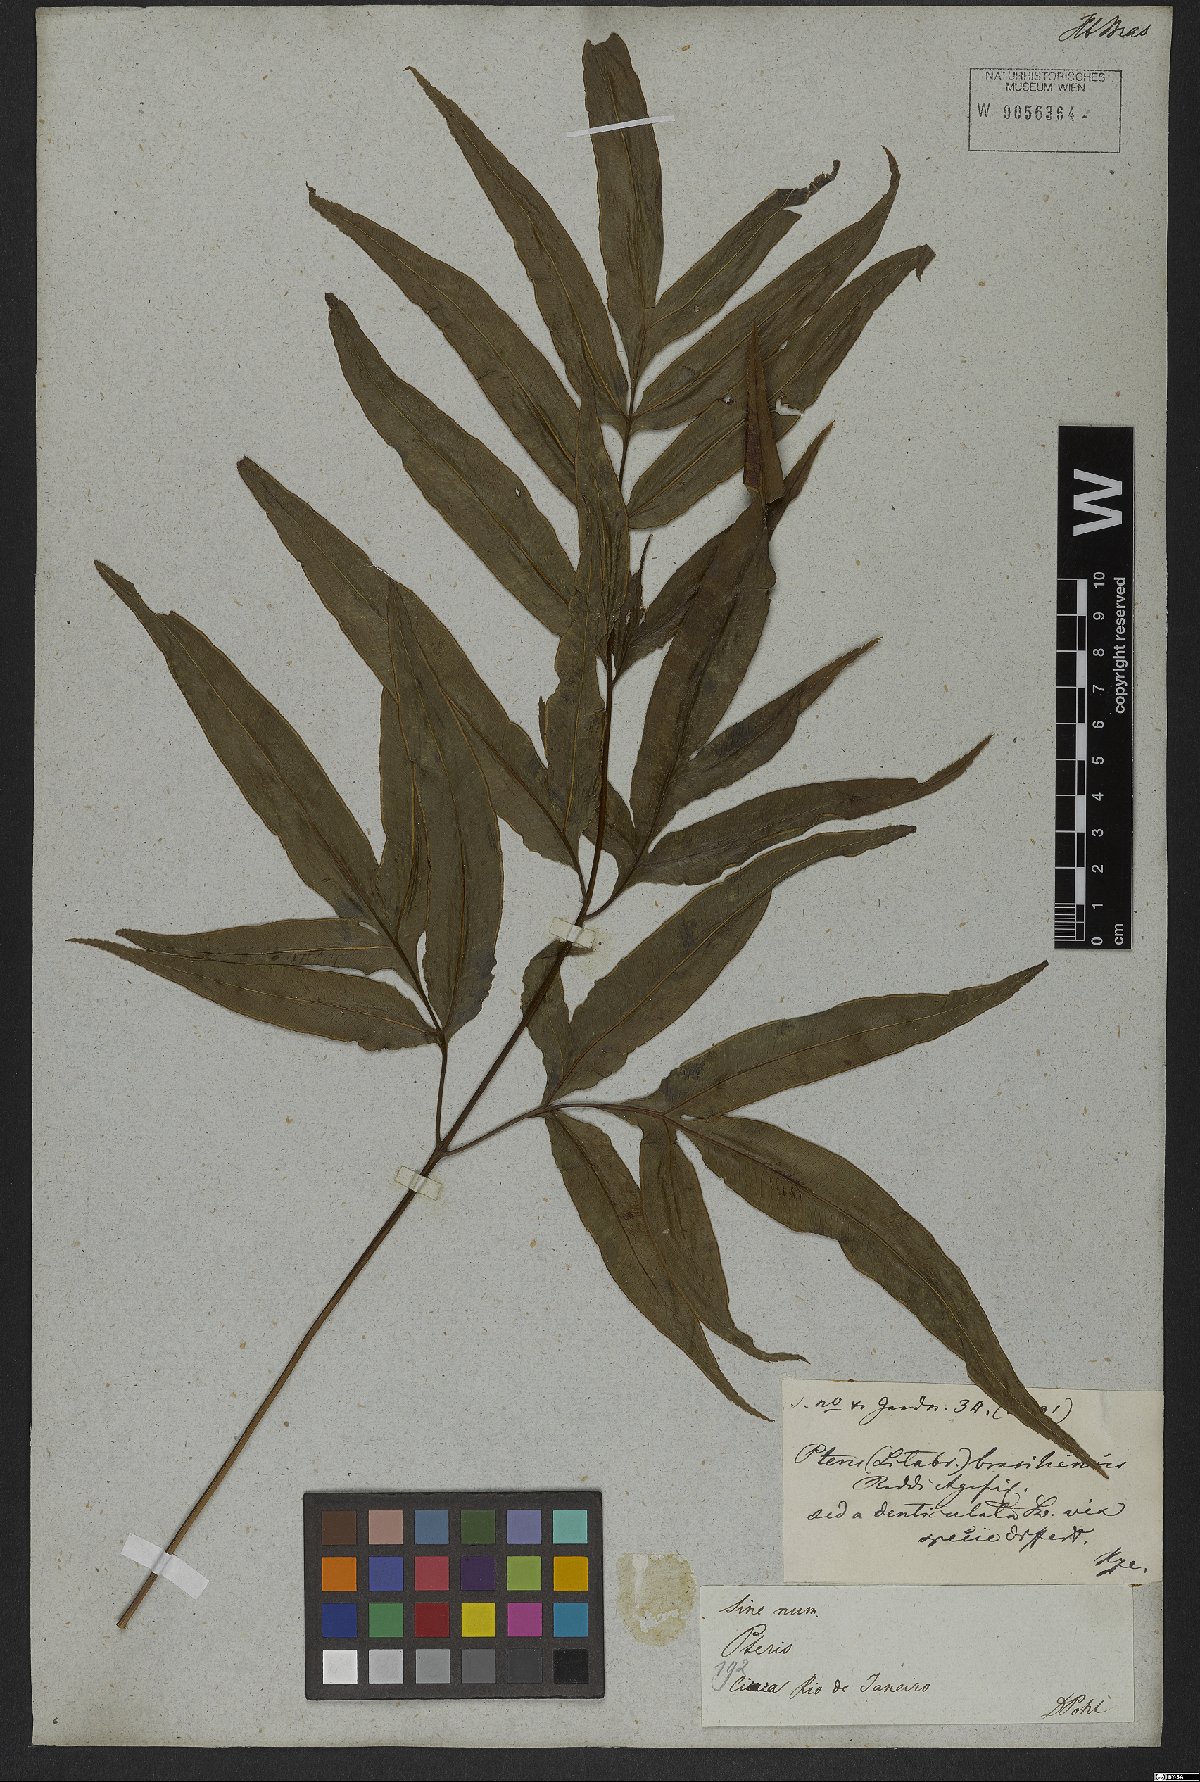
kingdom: Plantae
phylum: Tracheophyta
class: Polypodiopsida
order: Polypodiales
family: Pteridaceae
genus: Pteris
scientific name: Pteris denticulata
